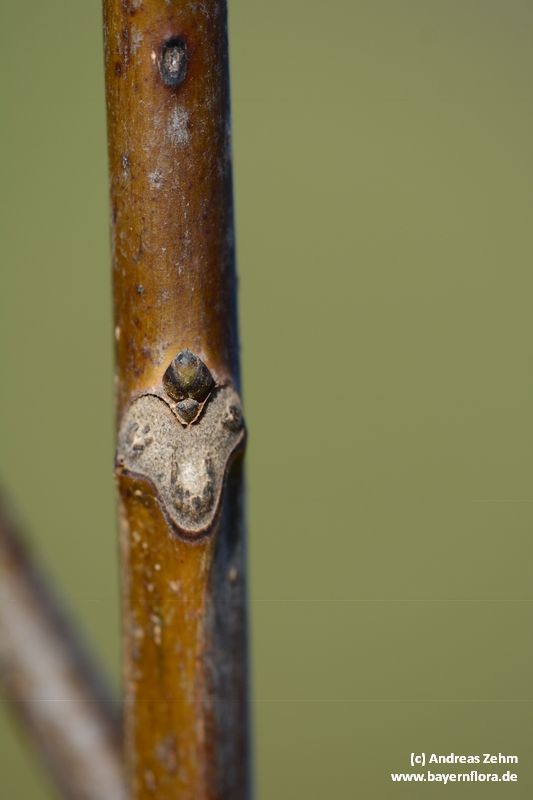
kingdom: Plantae
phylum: Tracheophyta
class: Magnoliopsida
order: Fagales
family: Juglandaceae
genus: Juglans
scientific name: Juglans regia
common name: Walnut
